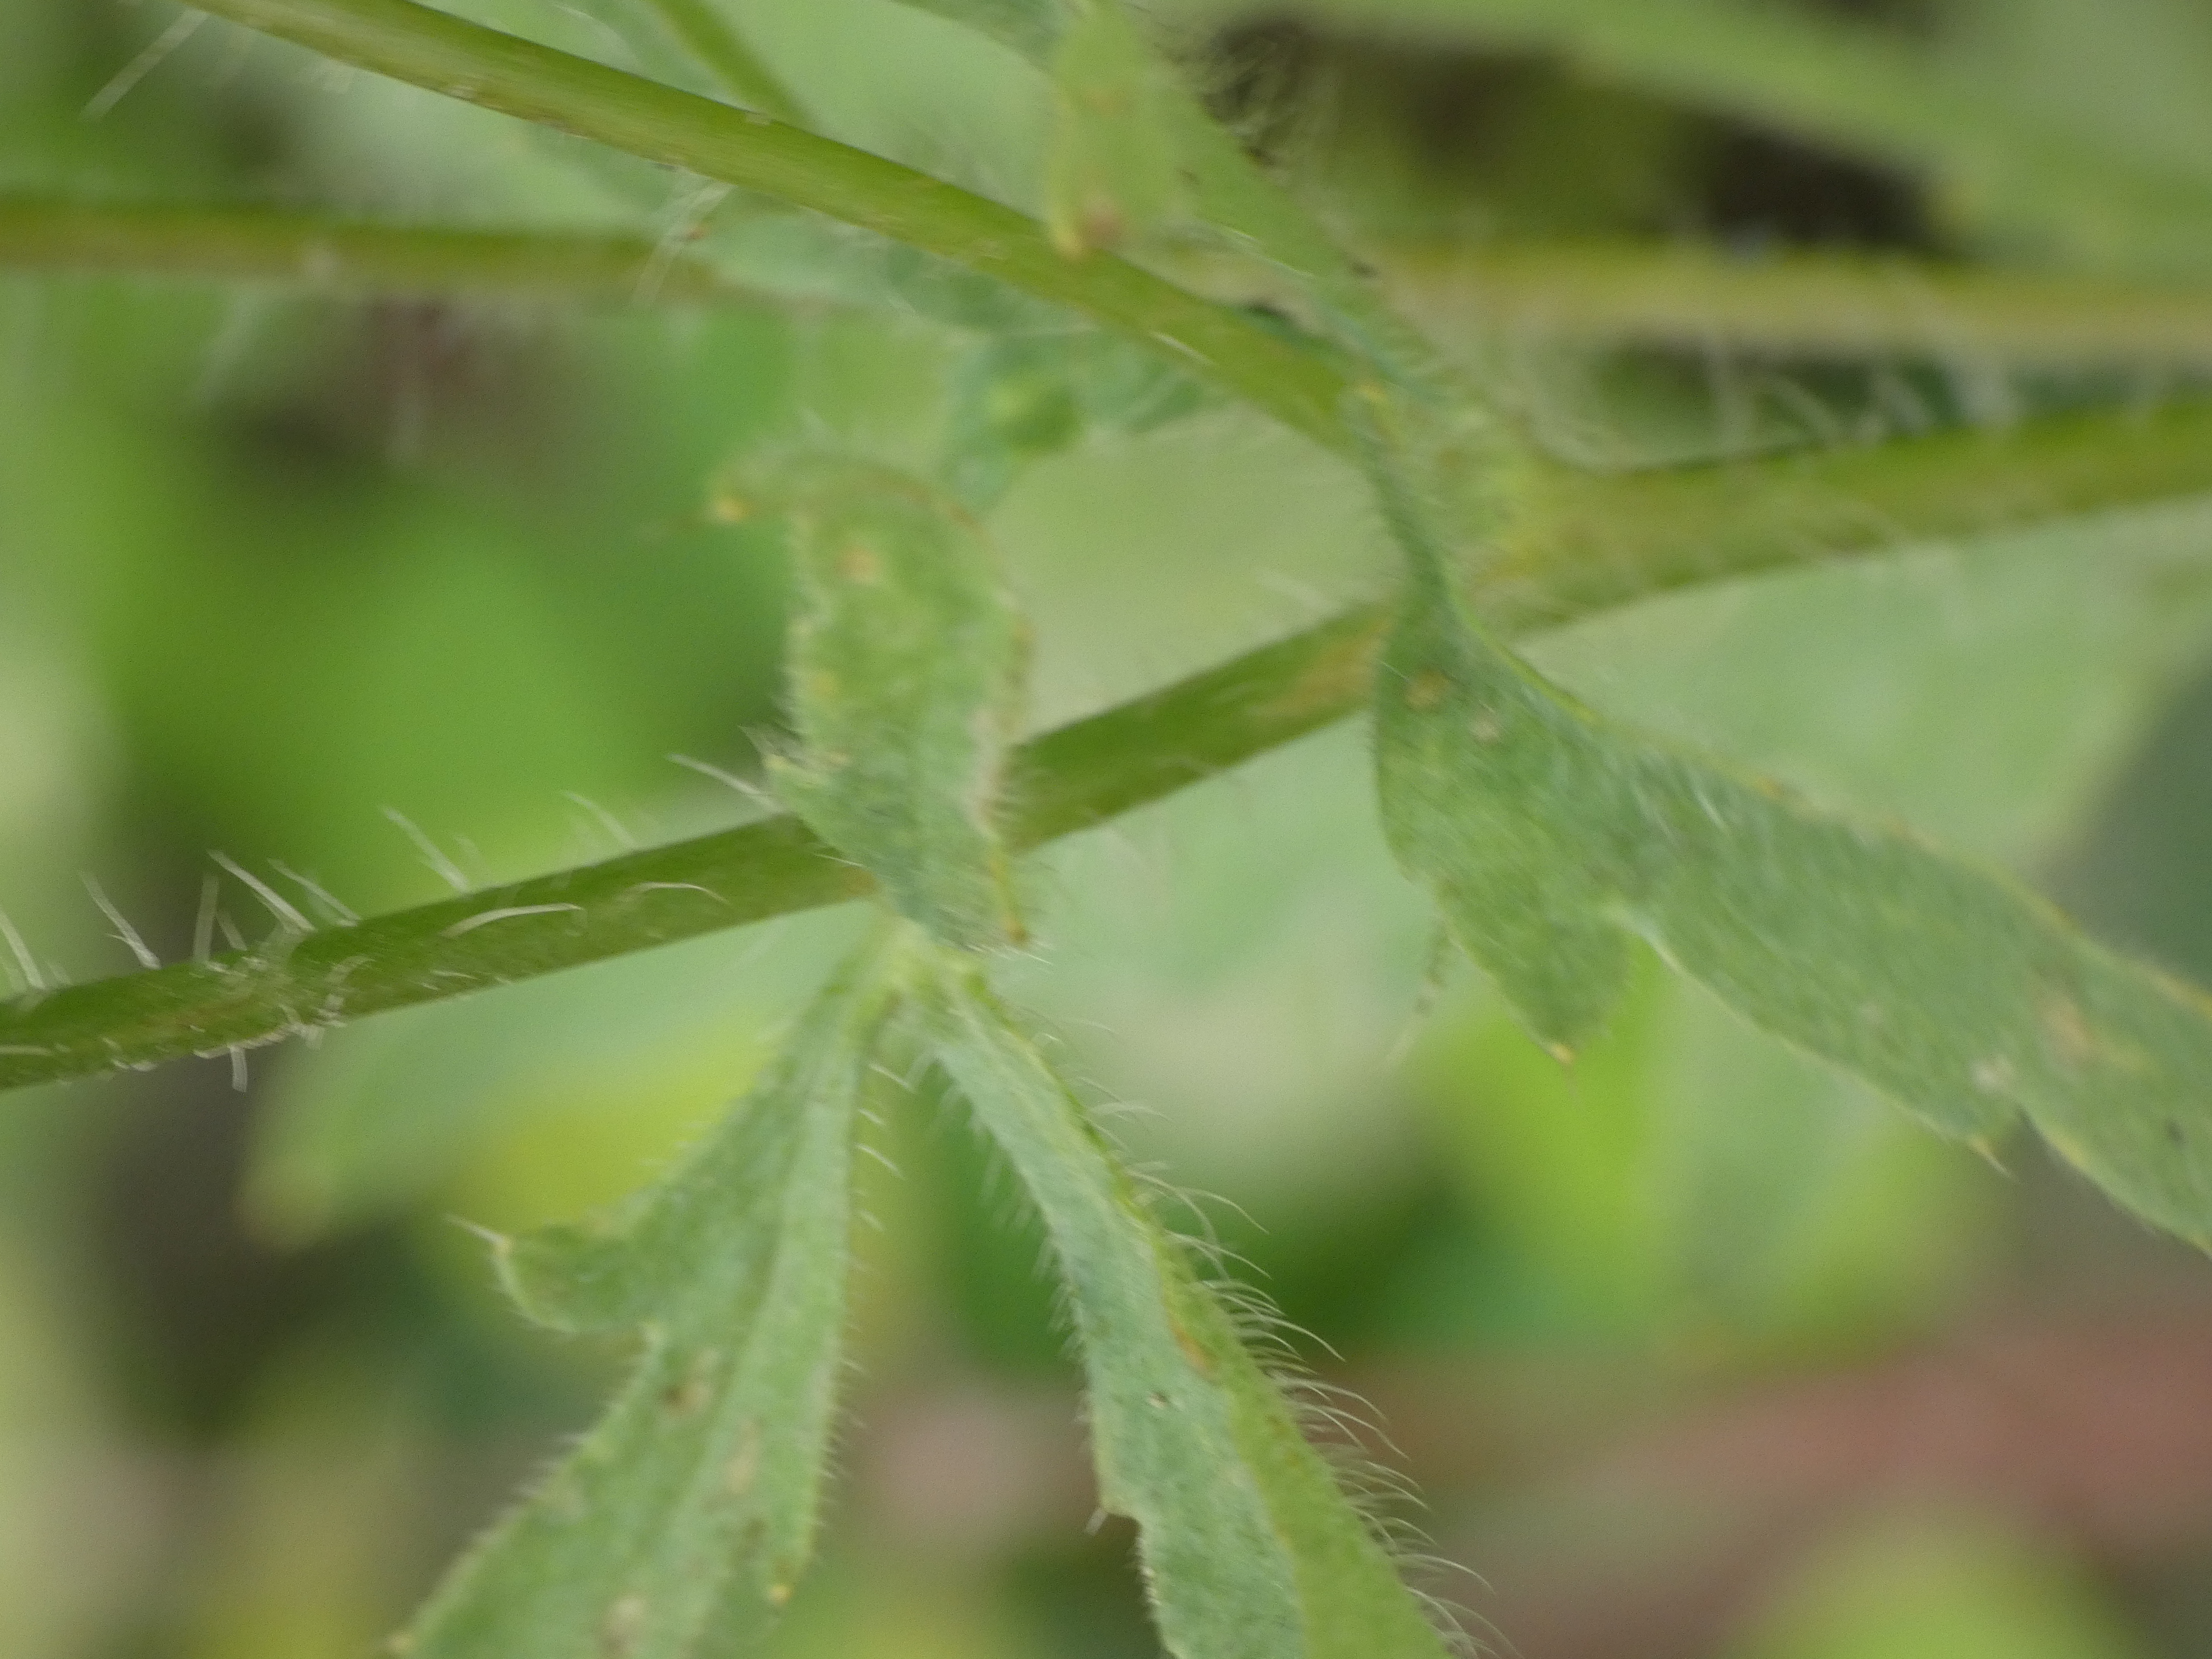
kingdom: Plantae
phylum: Tracheophyta
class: Magnoliopsida
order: Ranunculales
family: Papaveraceae
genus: Papaver
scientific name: Papaver rhoeas
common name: Korn-valmue
